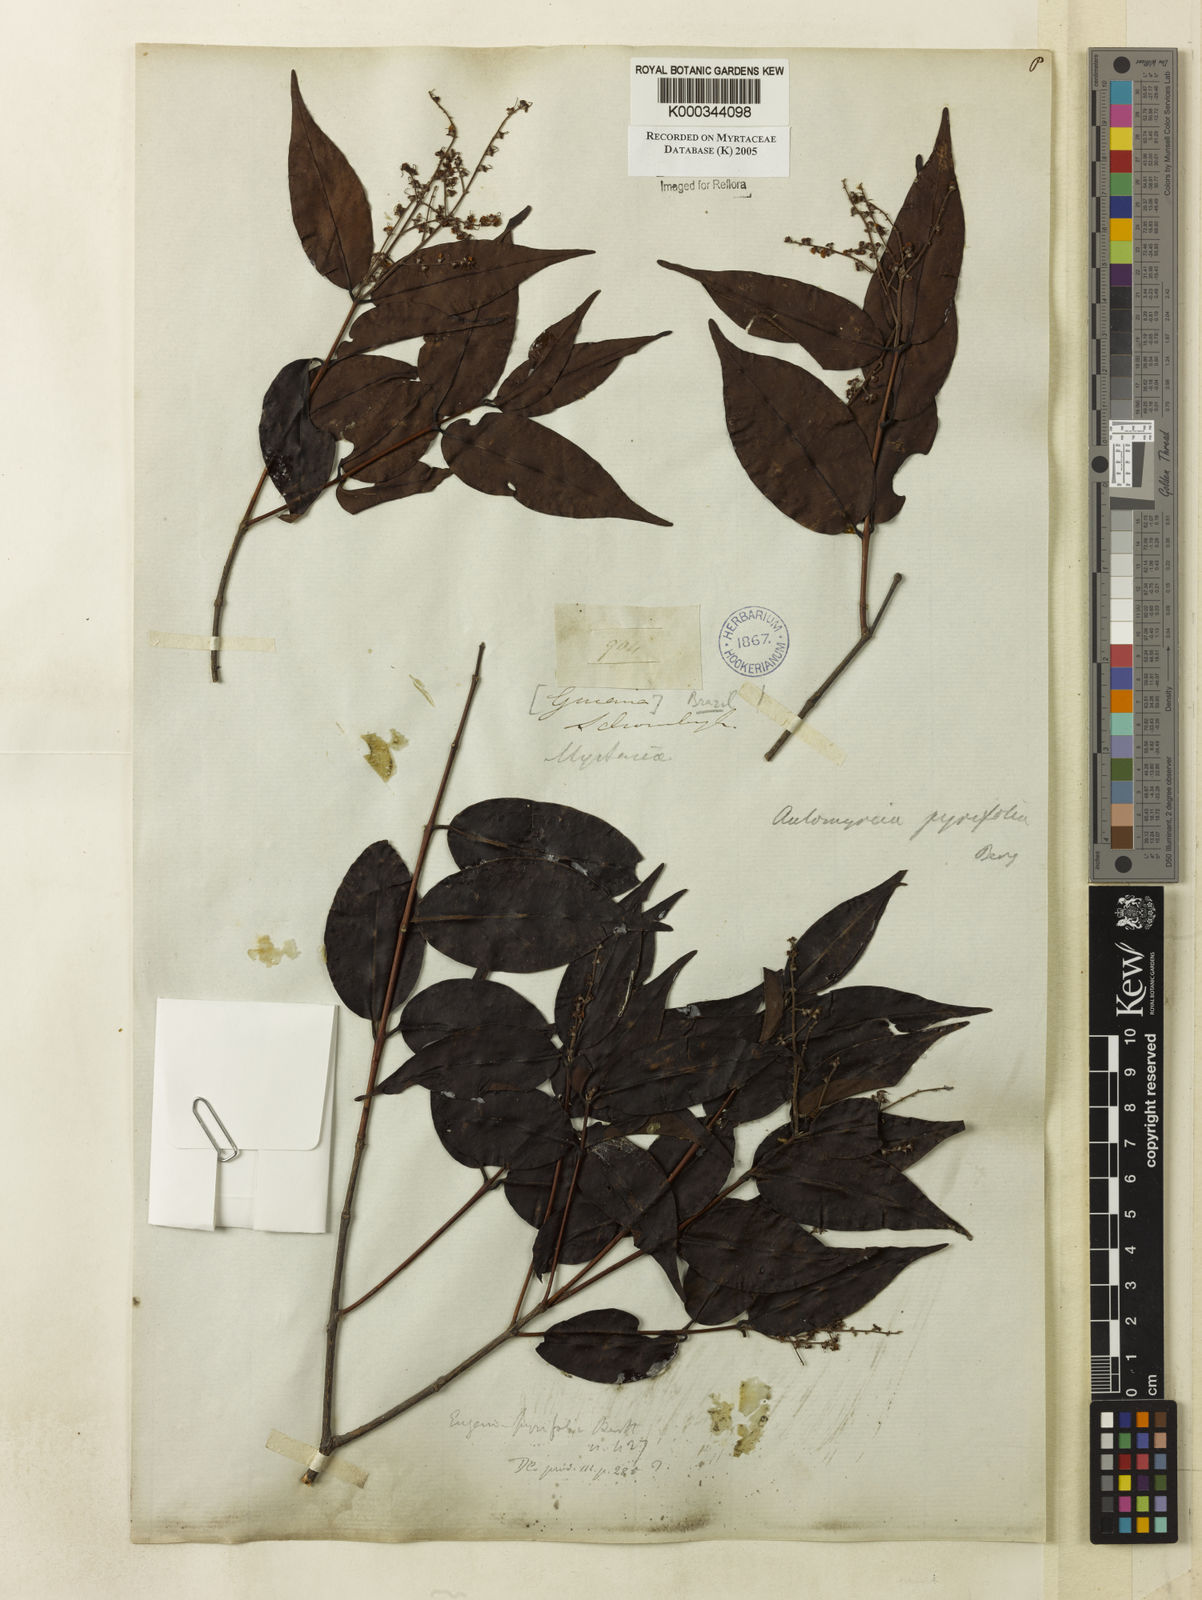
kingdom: Plantae
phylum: Tracheophyta
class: Magnoliopsida
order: Myrtales
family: Myrtaceae
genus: Myrcia
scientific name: Myrcia pyrifolia
